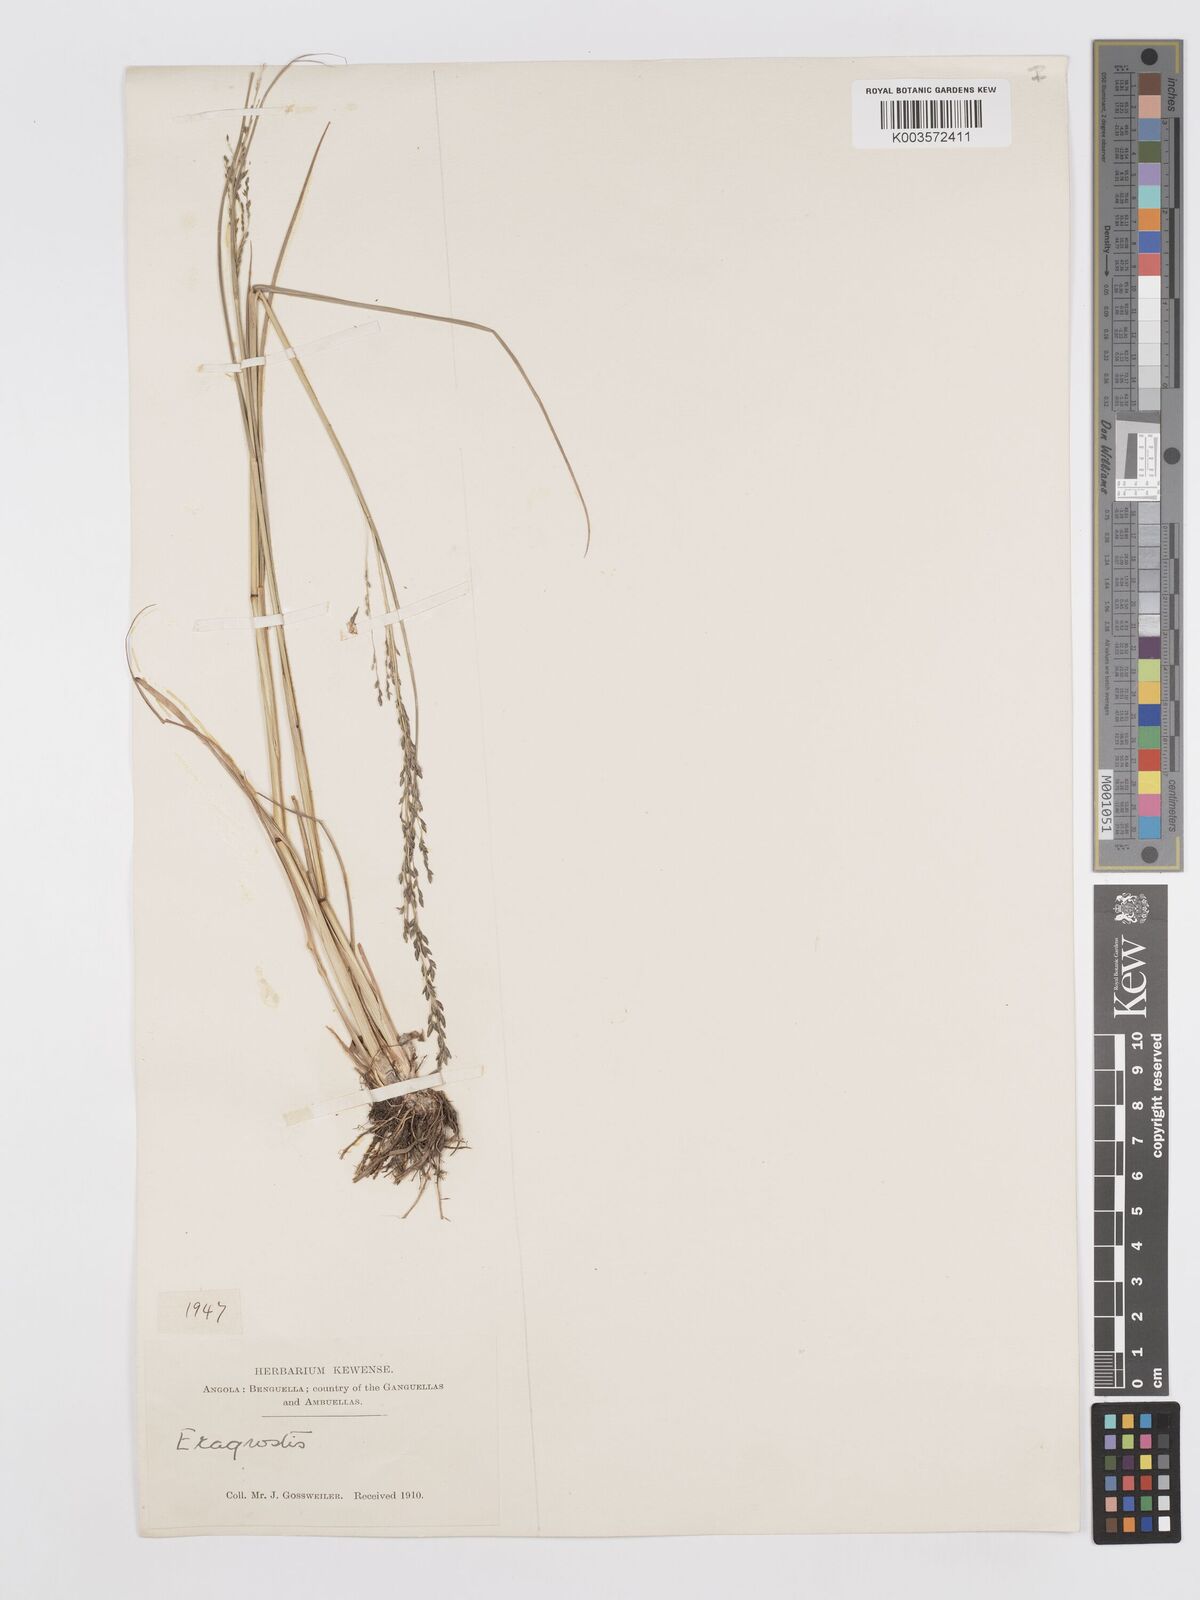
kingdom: Plantae
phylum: Tracheophyta
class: Liliopsida
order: Poales
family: Poaceae
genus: Eragrostis
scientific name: Eragrostis
